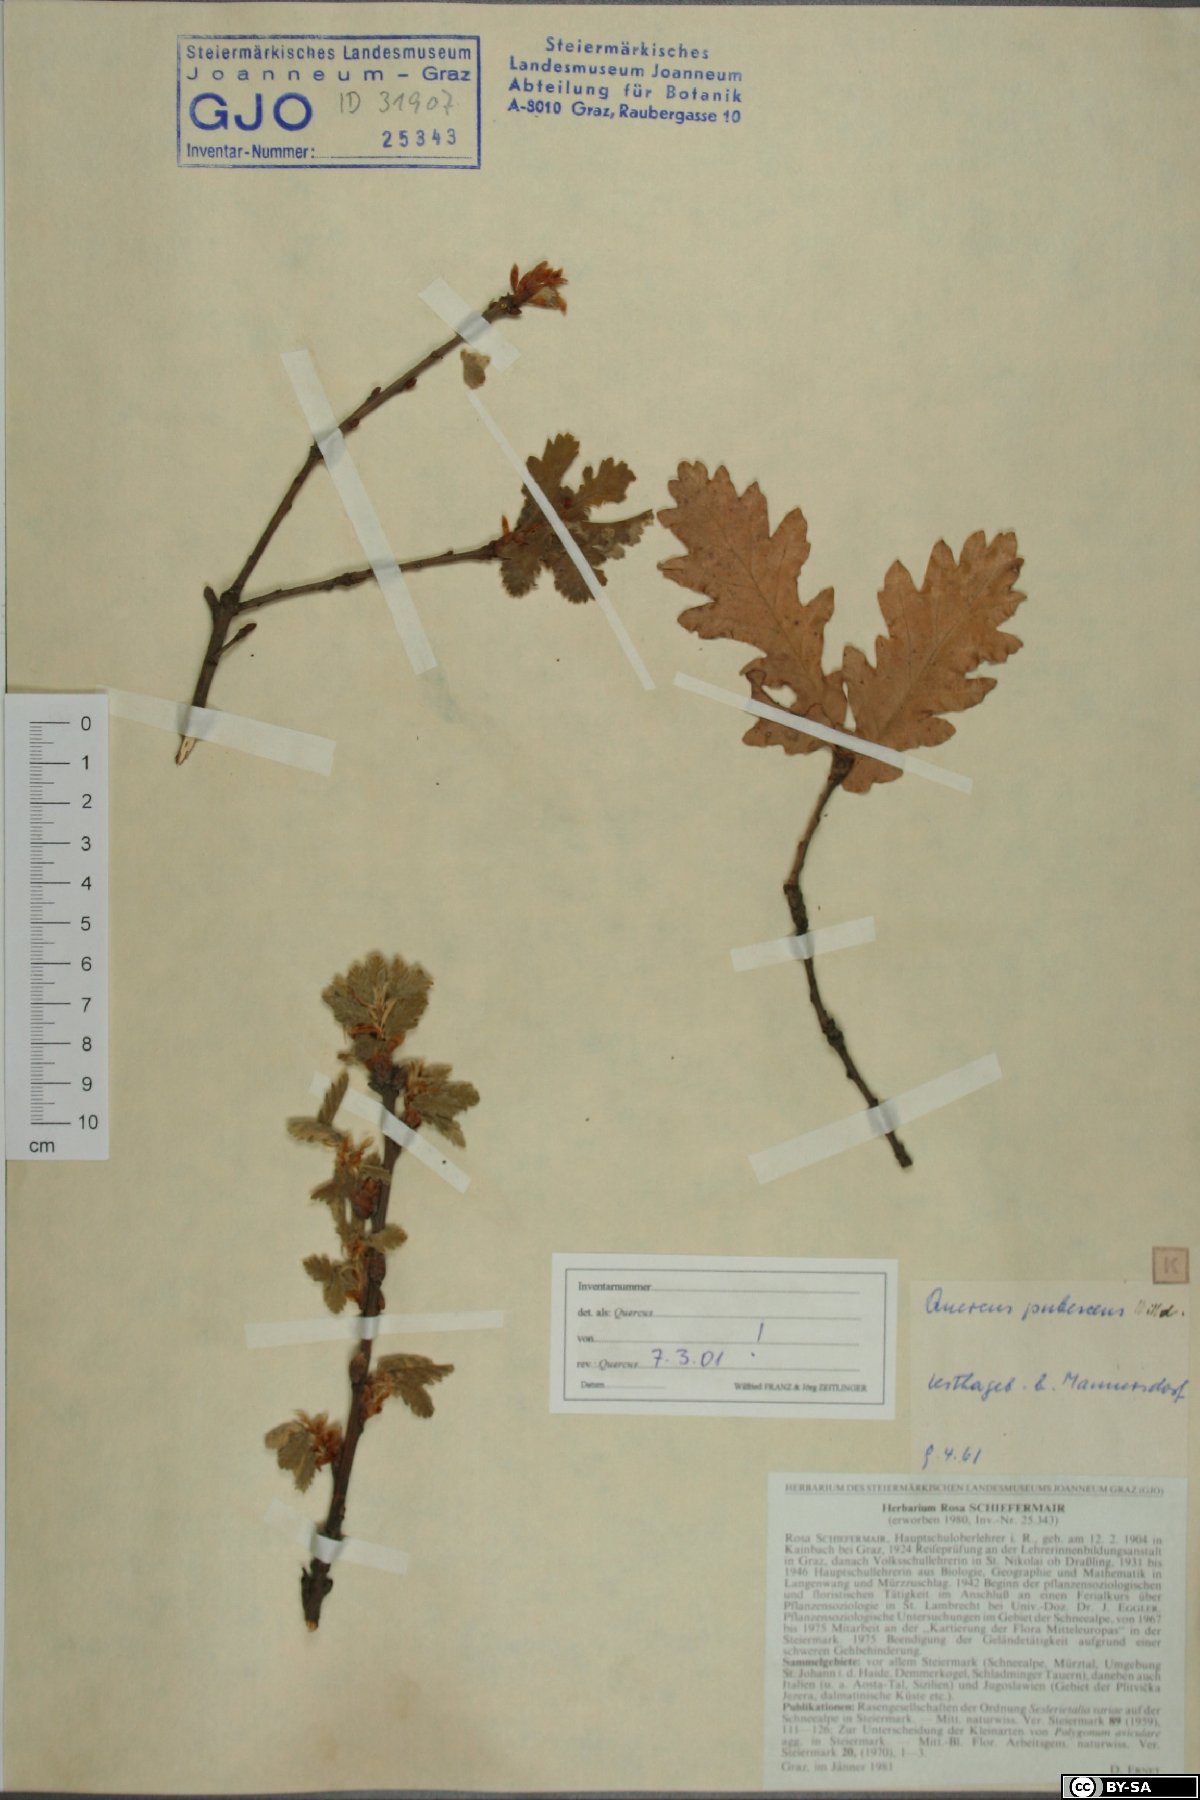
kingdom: Plantae
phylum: Tracheophyta
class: Magnoliopsida
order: Fagales
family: Fagaceae
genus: Quercus
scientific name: Quercus pubescens
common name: Downy oak
